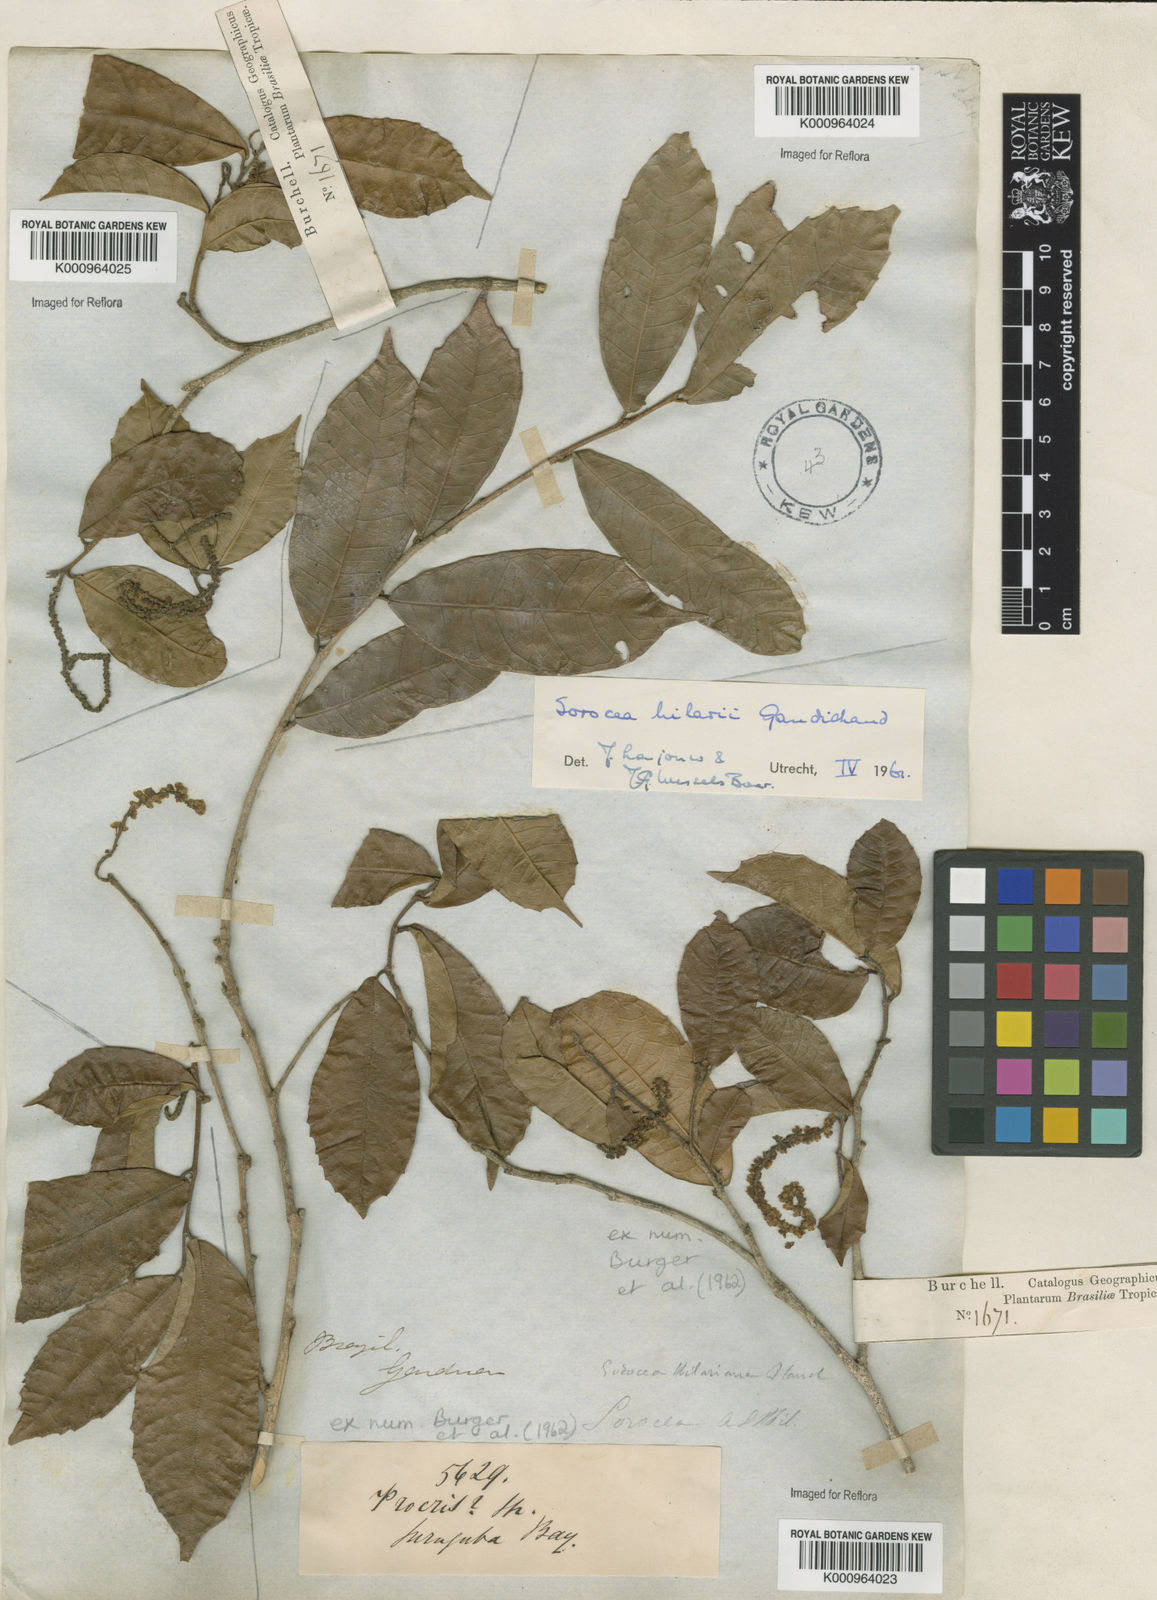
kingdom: Plantae
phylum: Tracheophyta
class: Magnoliopsida
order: Rosales
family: Moraceae
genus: Sorocea
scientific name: Sorocea hilarii
